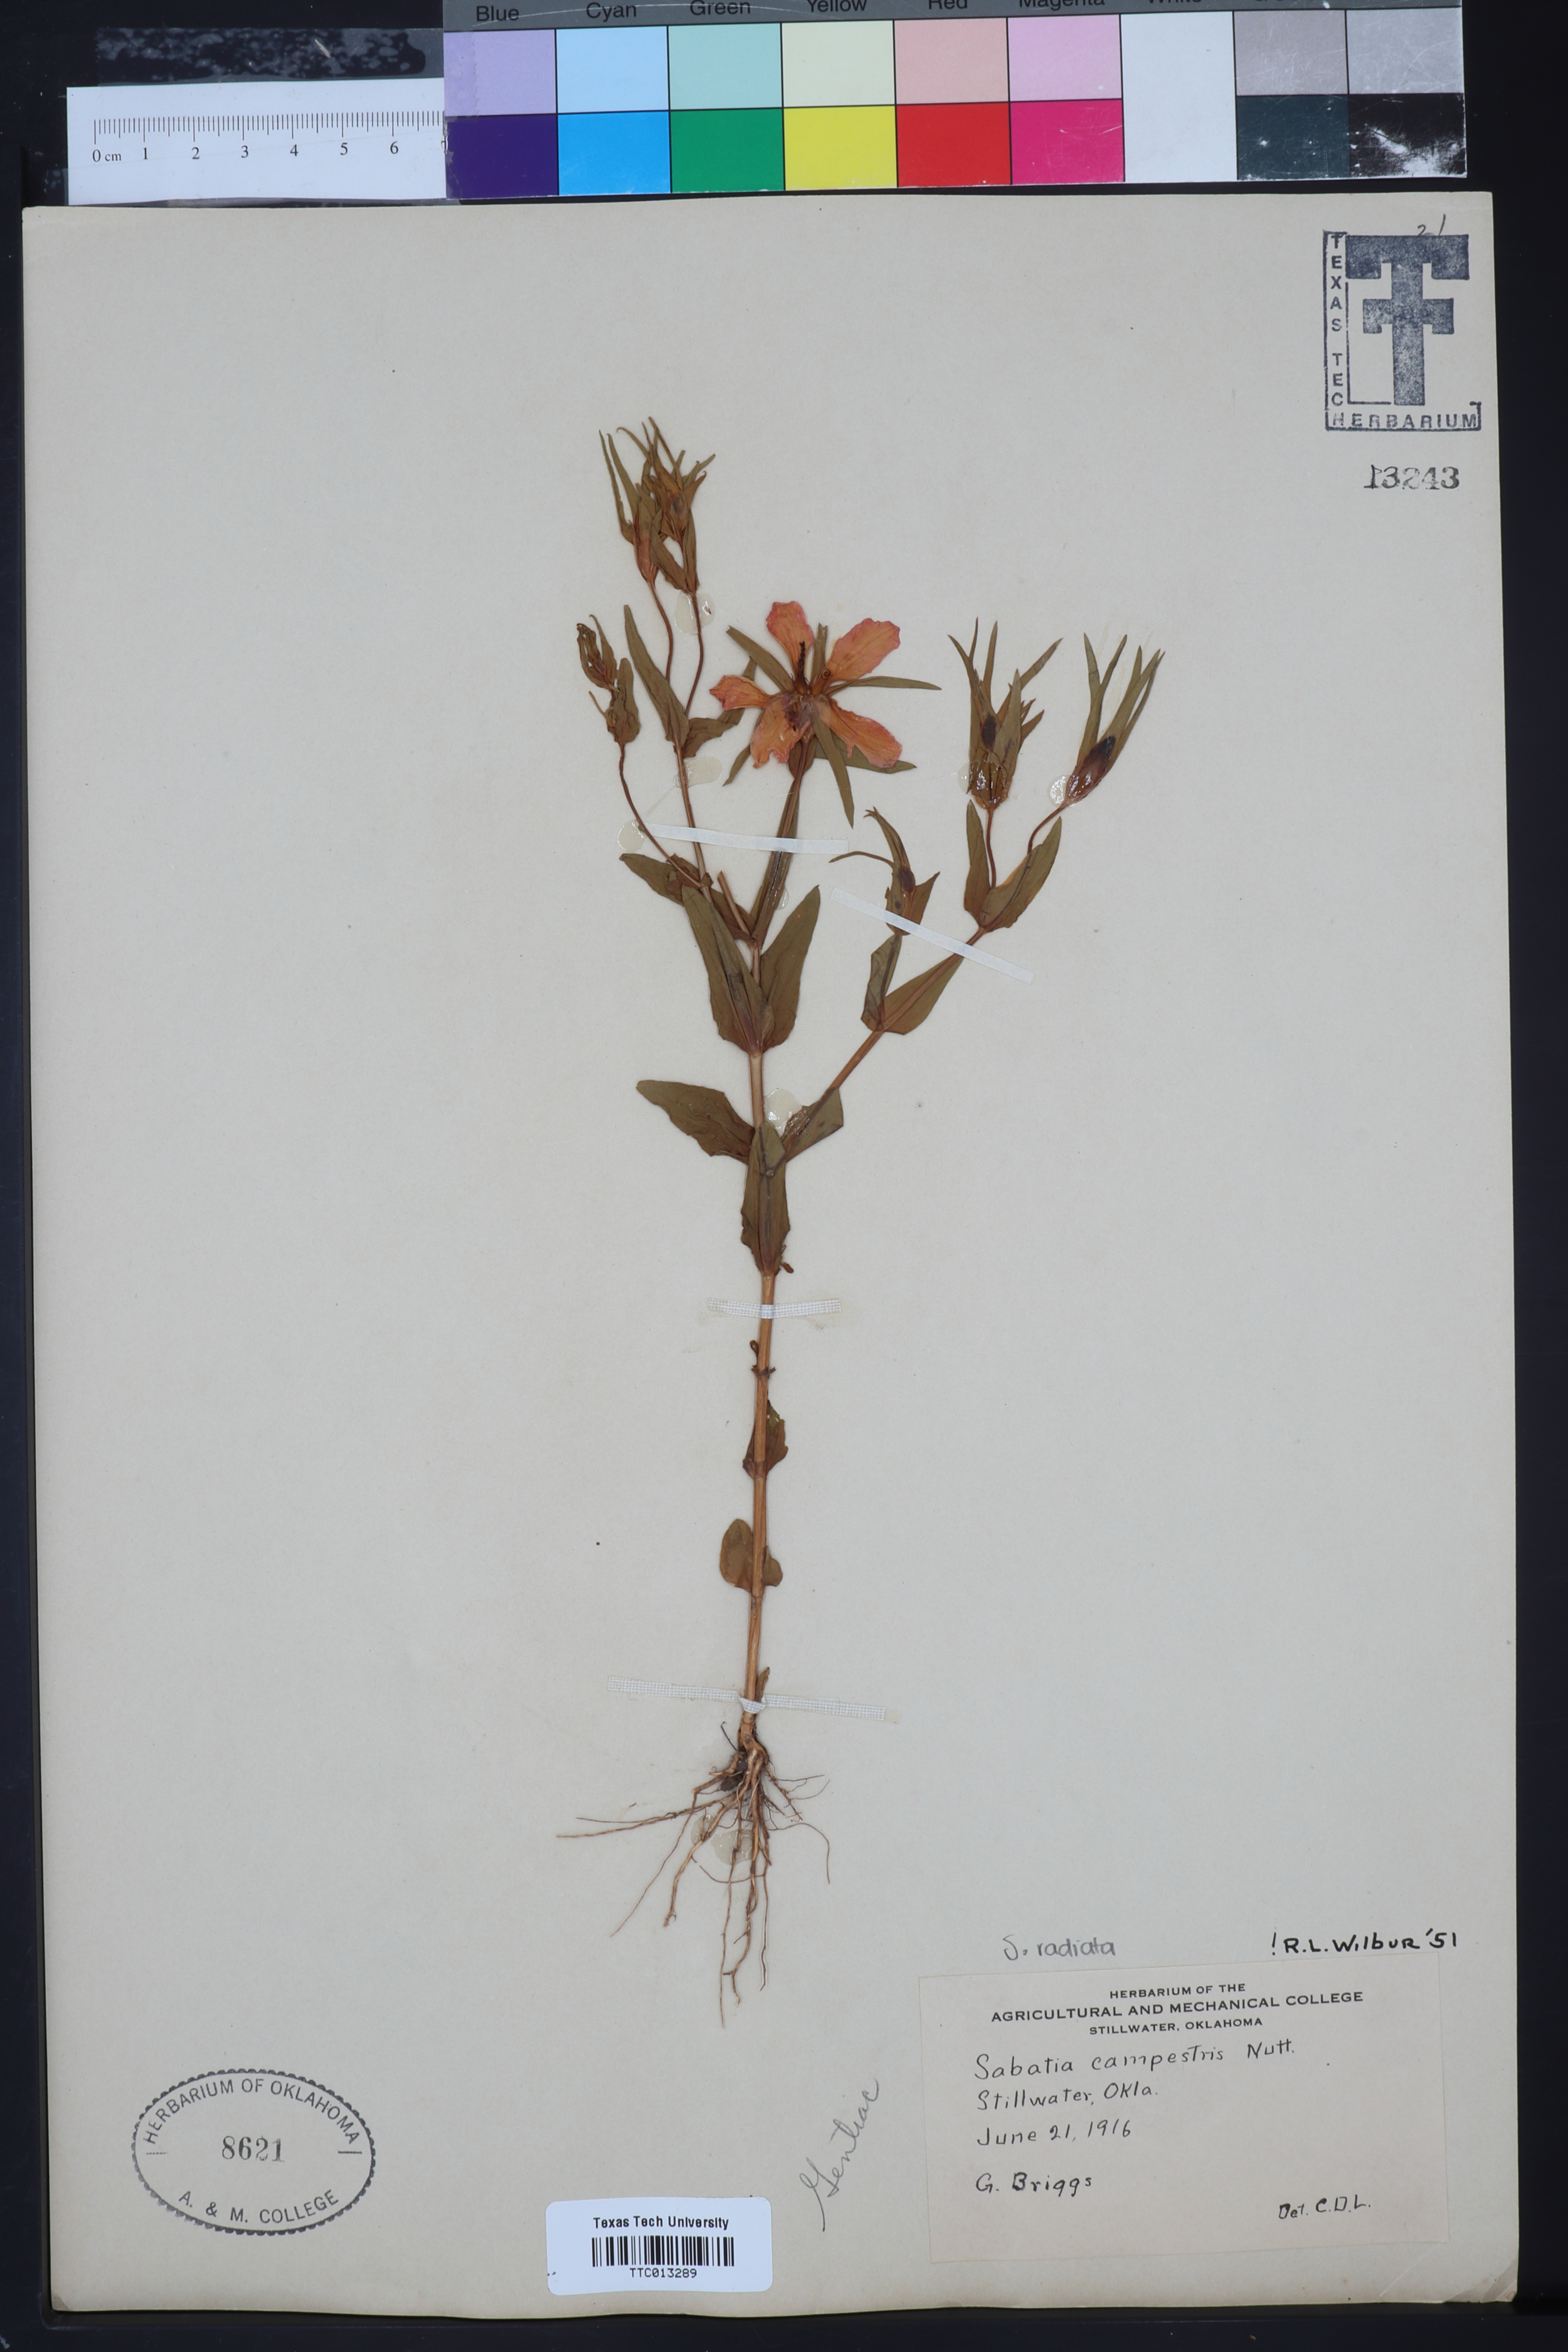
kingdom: Plantae
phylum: Tracheophyta
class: Magnoliopsida
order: Gentianales
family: Gentianaceae
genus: Sabatia
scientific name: Sabatia campestris
